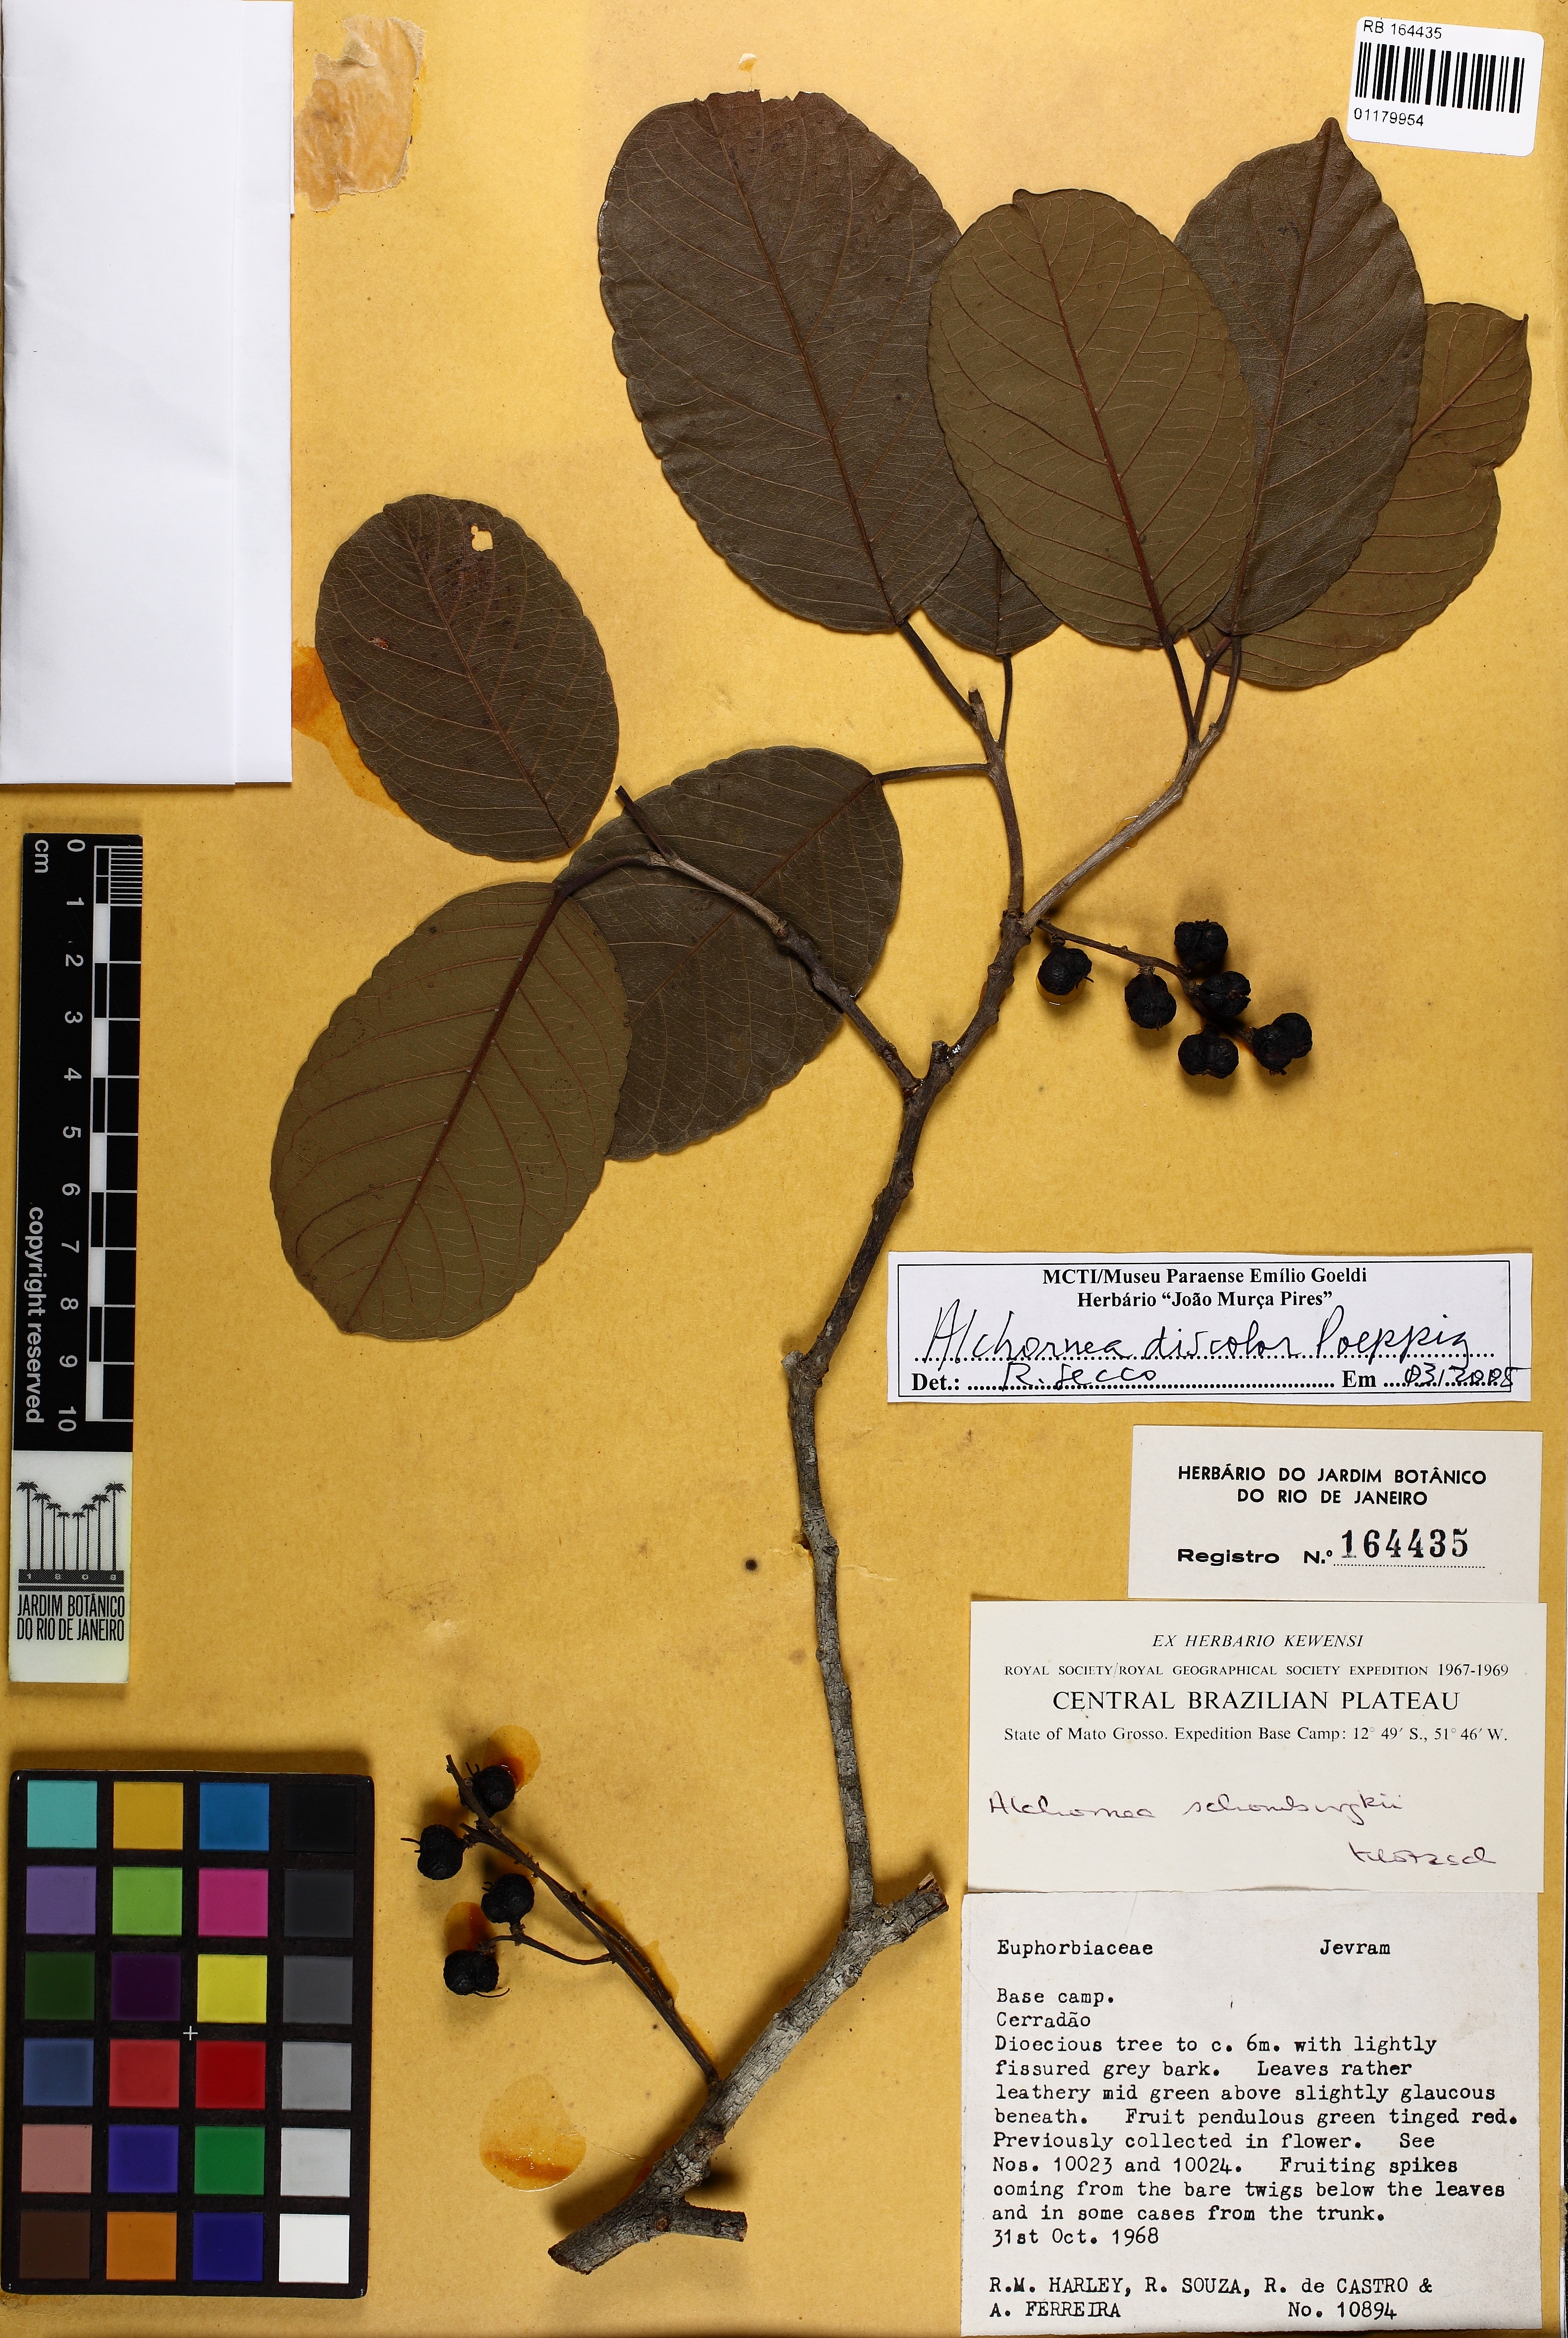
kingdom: Plantae
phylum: Tracheophyta
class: Magnoliopsida
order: Malpighiales
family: Euphorbiaceae
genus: Alchornea
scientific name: Alchornea discolor
